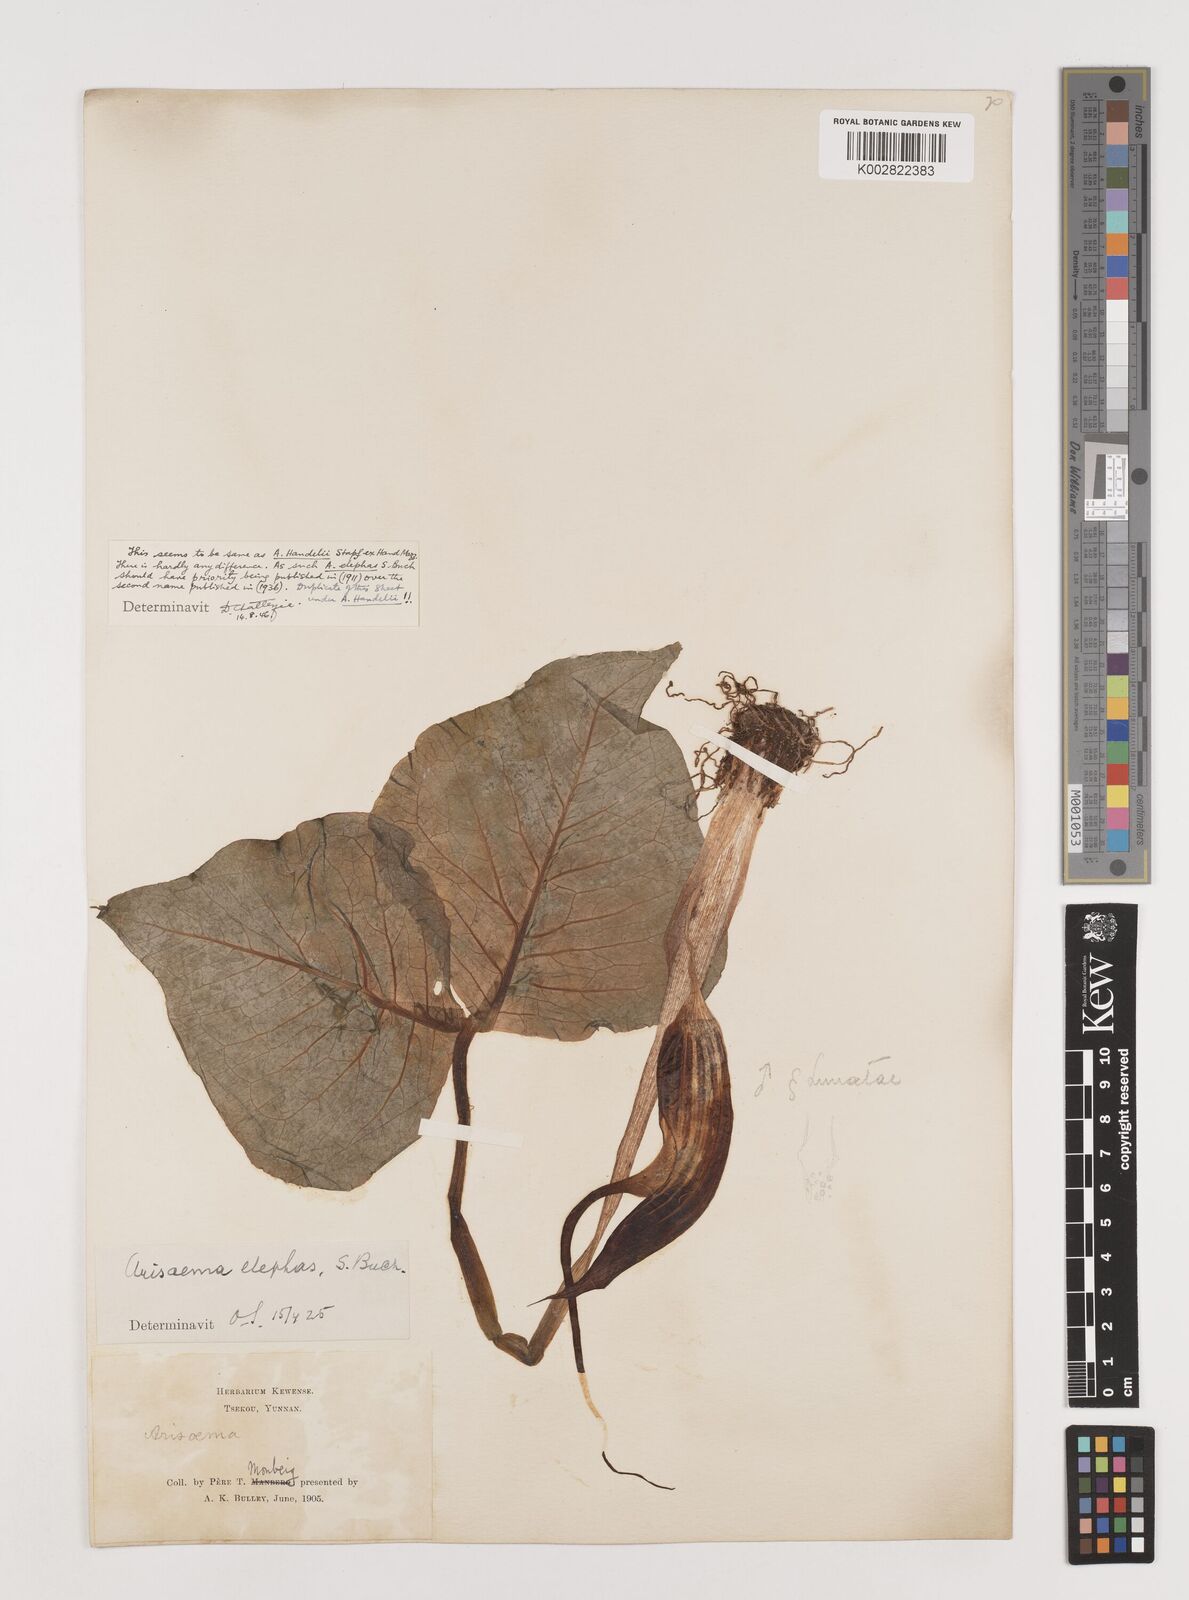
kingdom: Plantae
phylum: Tracheophyta
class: Liliopsida
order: Alismatales
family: Araceae
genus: Arisaema
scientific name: Arisaema elephas
